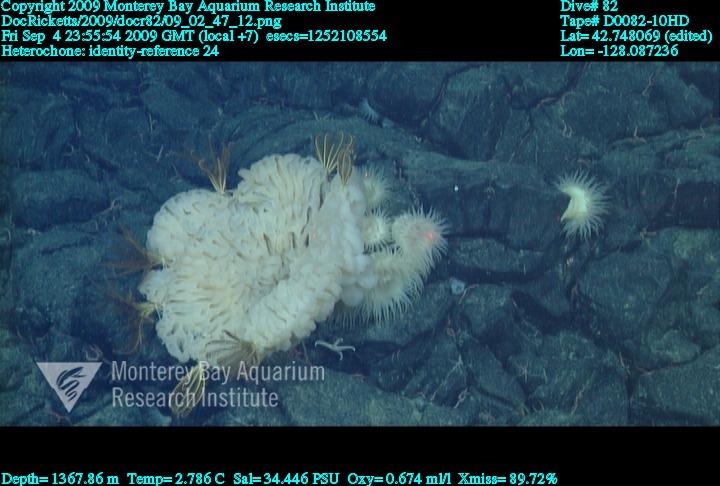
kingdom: Animalia
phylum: Porifera
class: Hexactinellida
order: Sceptrulophora
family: Aphrocallistidae
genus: Heterochone
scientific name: Heterochone
